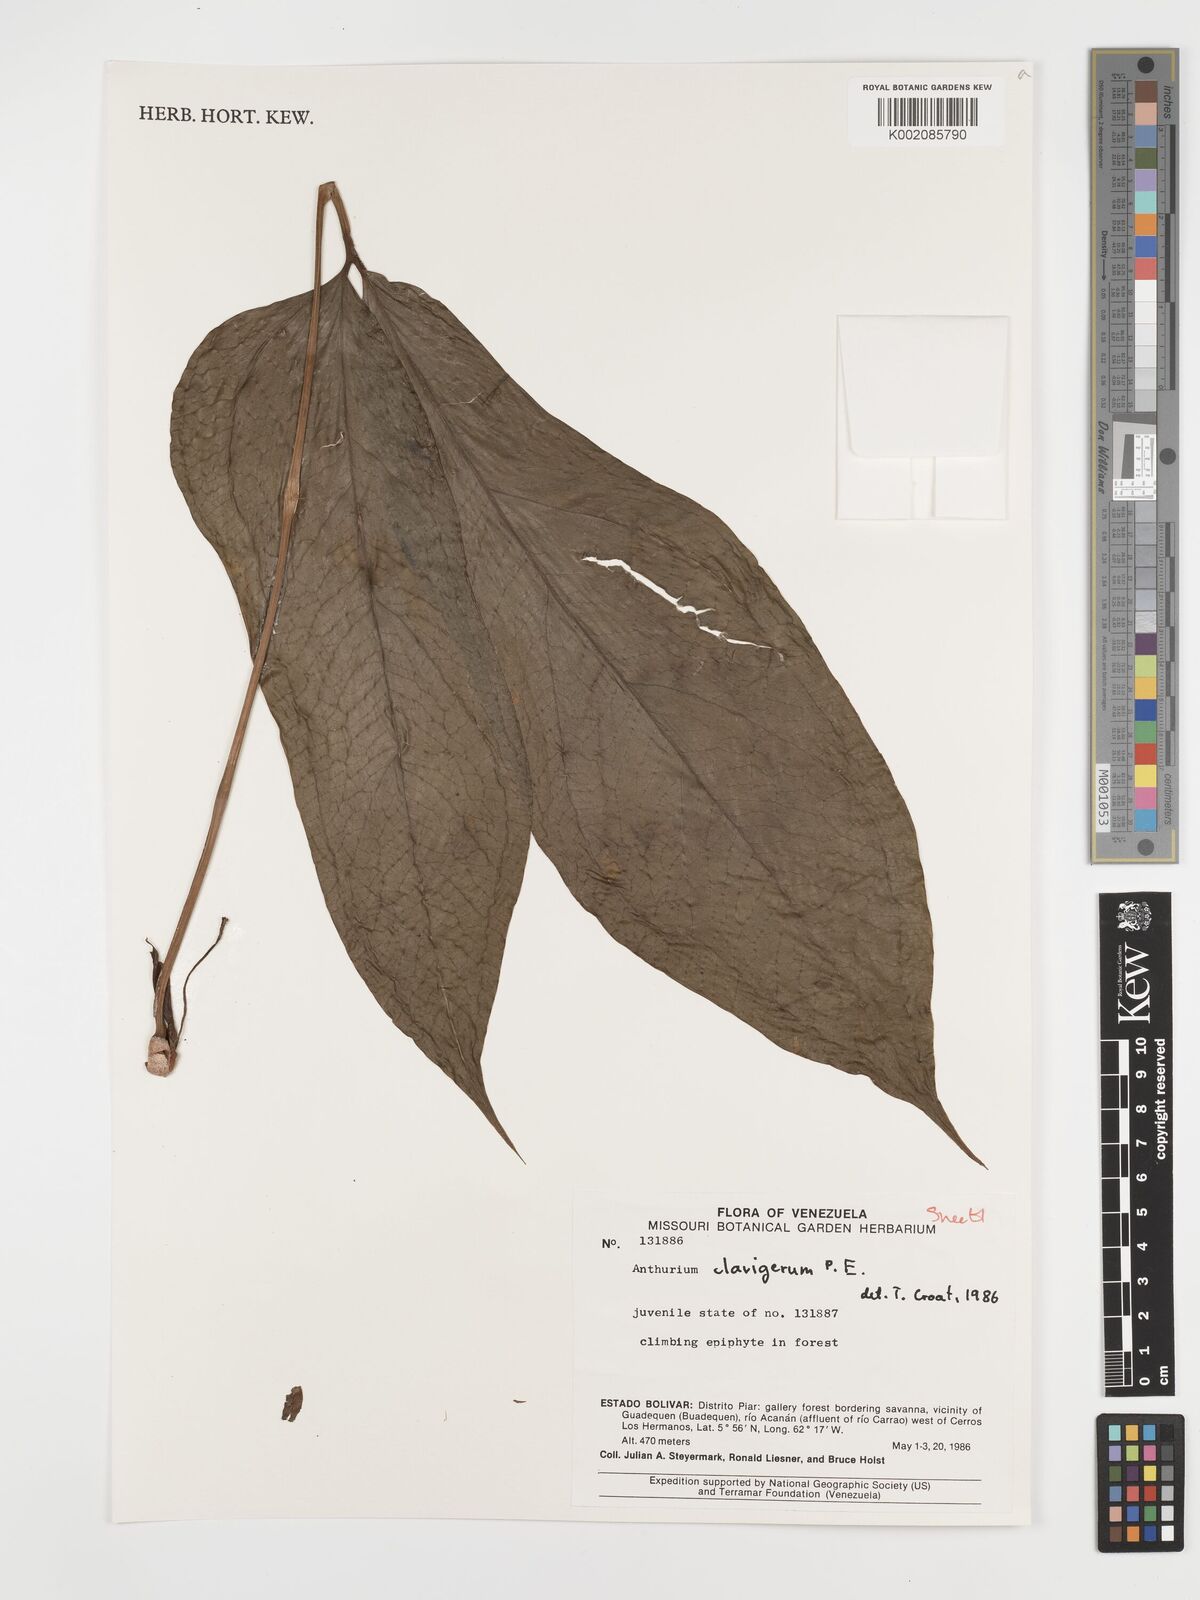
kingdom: Plantae
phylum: Tracheophyta
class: Liliopsida
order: Alismatales
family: Araceae
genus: Anthurium
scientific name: Anthurium clavigerum
